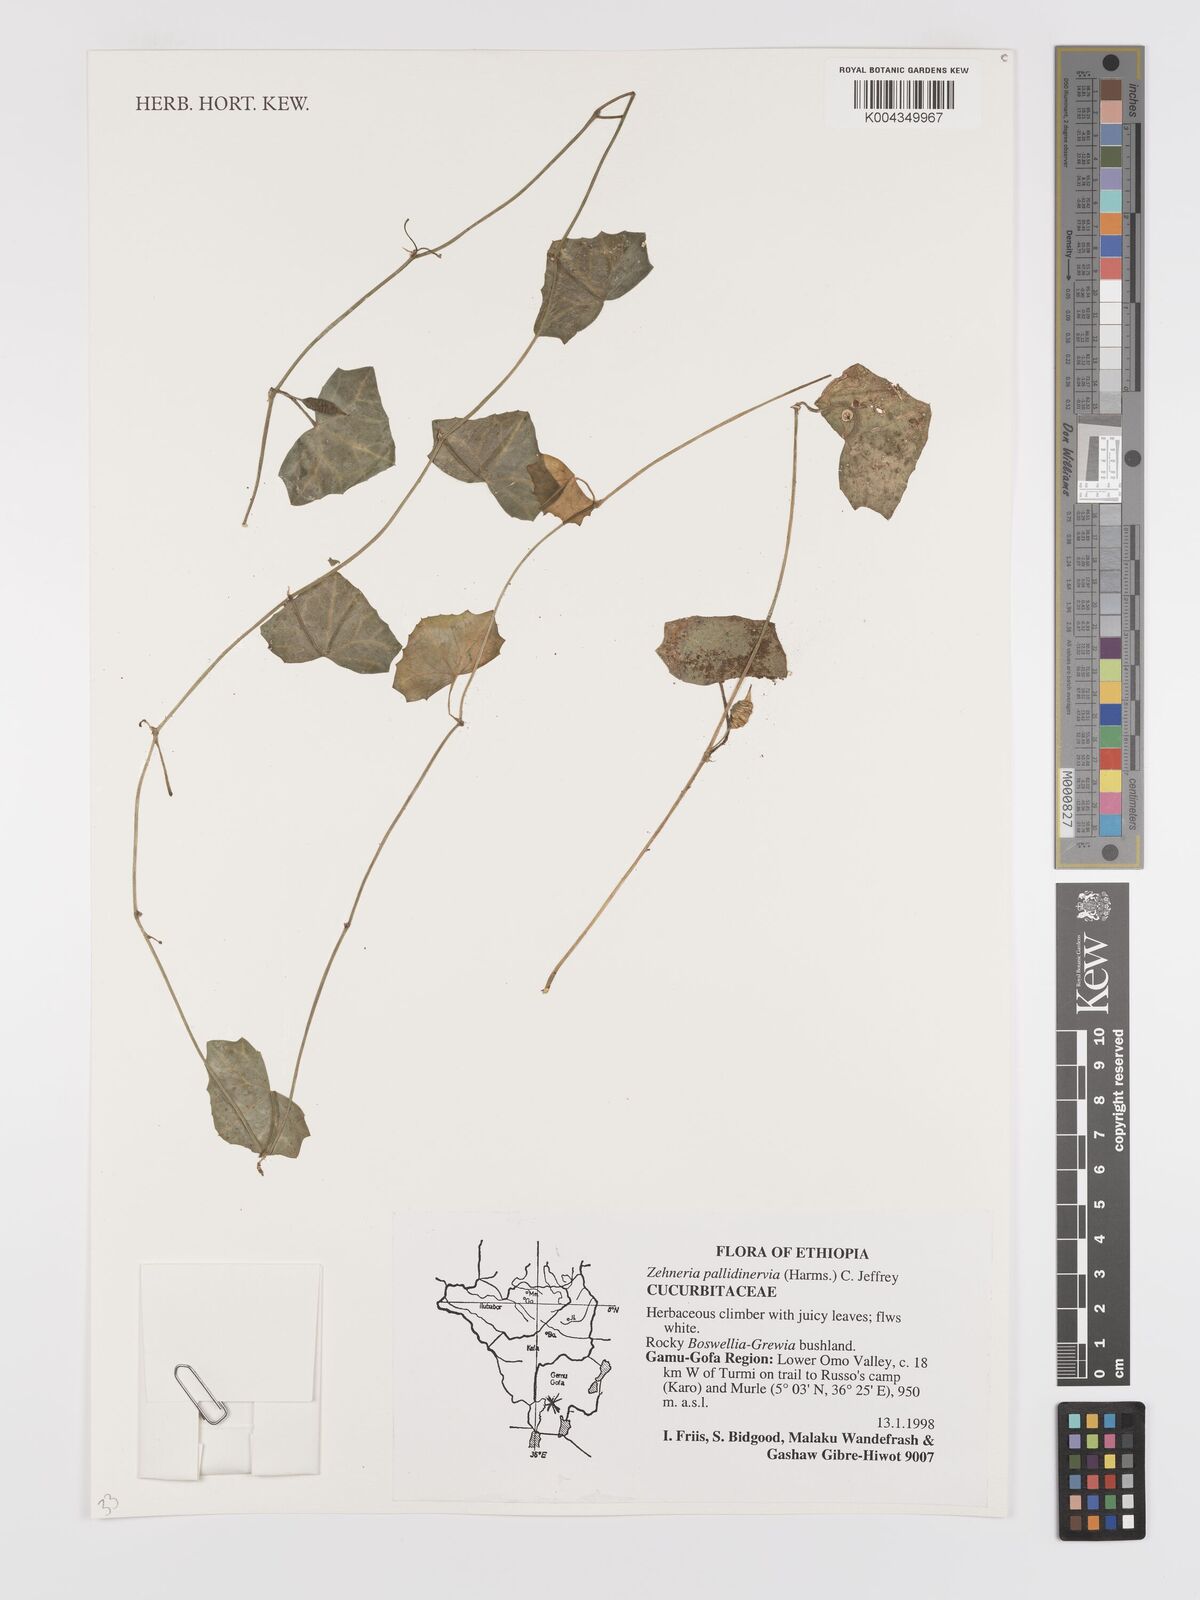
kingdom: Plantae
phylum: Tracheophyta
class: Magnoliopsida
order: Cucurbitales
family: Cucurbitaceae
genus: Zehneria
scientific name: Zehneria pallidinervia
